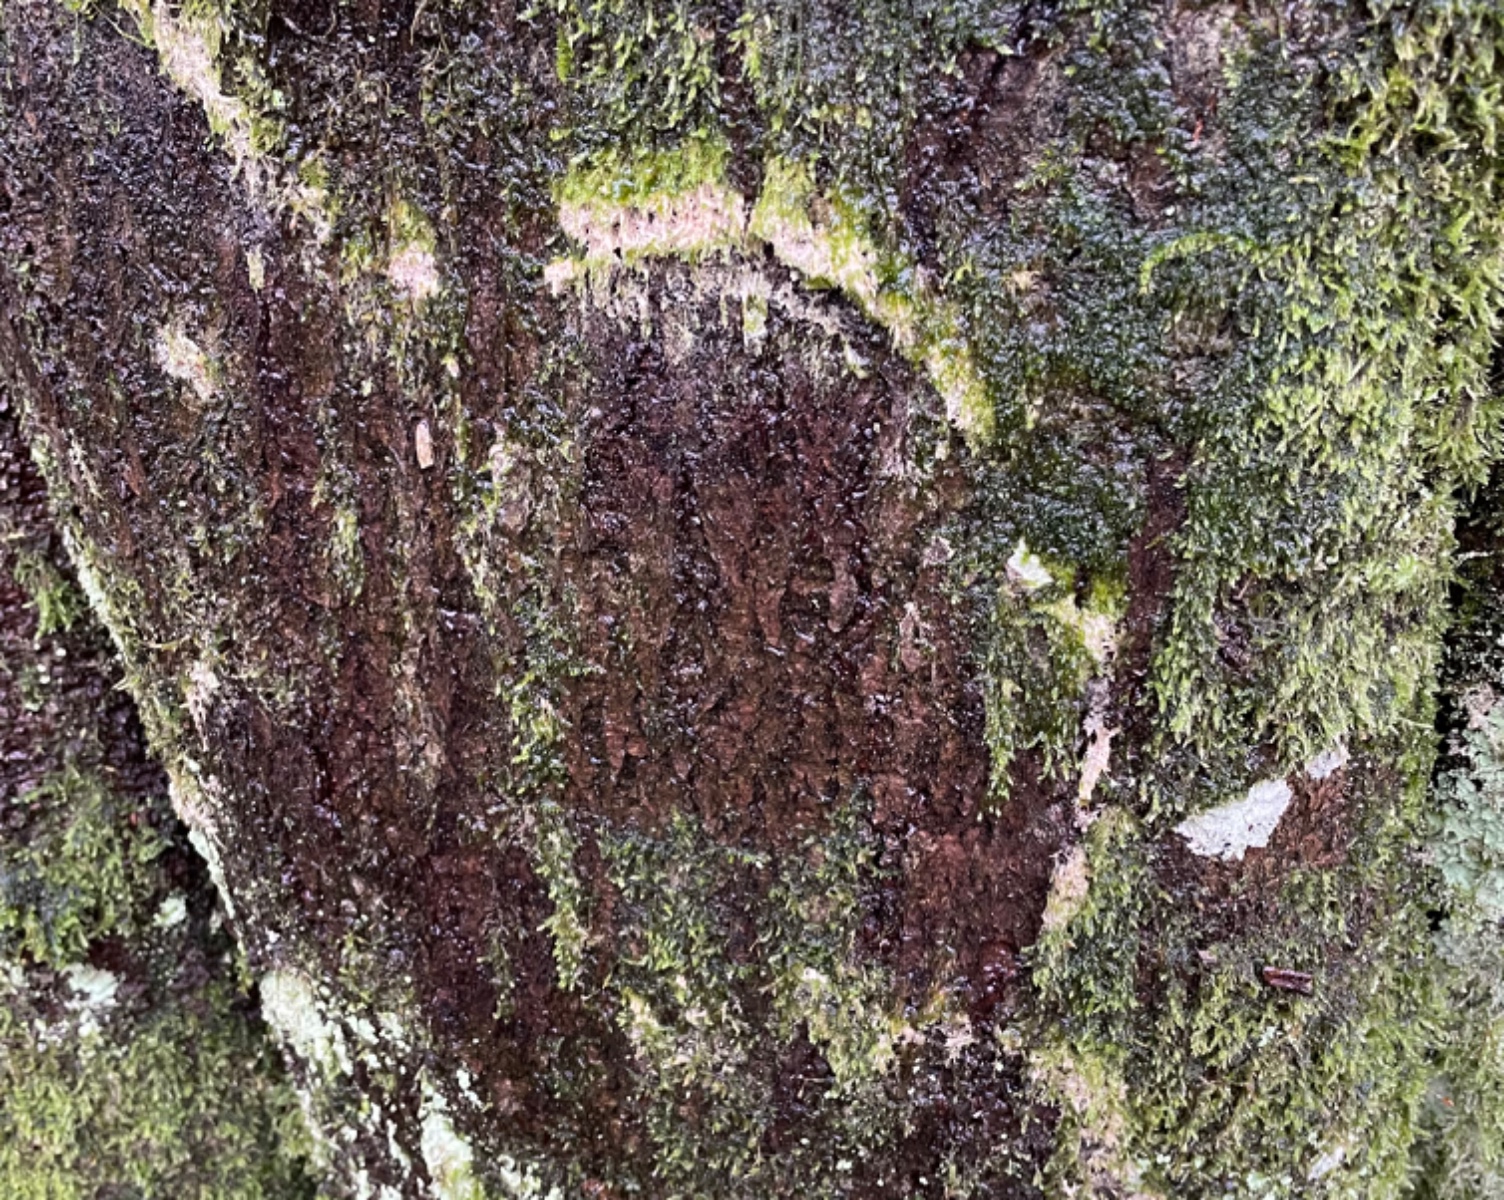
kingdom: Fungi
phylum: Basidiomycota
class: Agaricomycetes
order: Agaricales
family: Chromocyphellaceae
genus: Chromocyphella
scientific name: Chromocyphella muscicola
